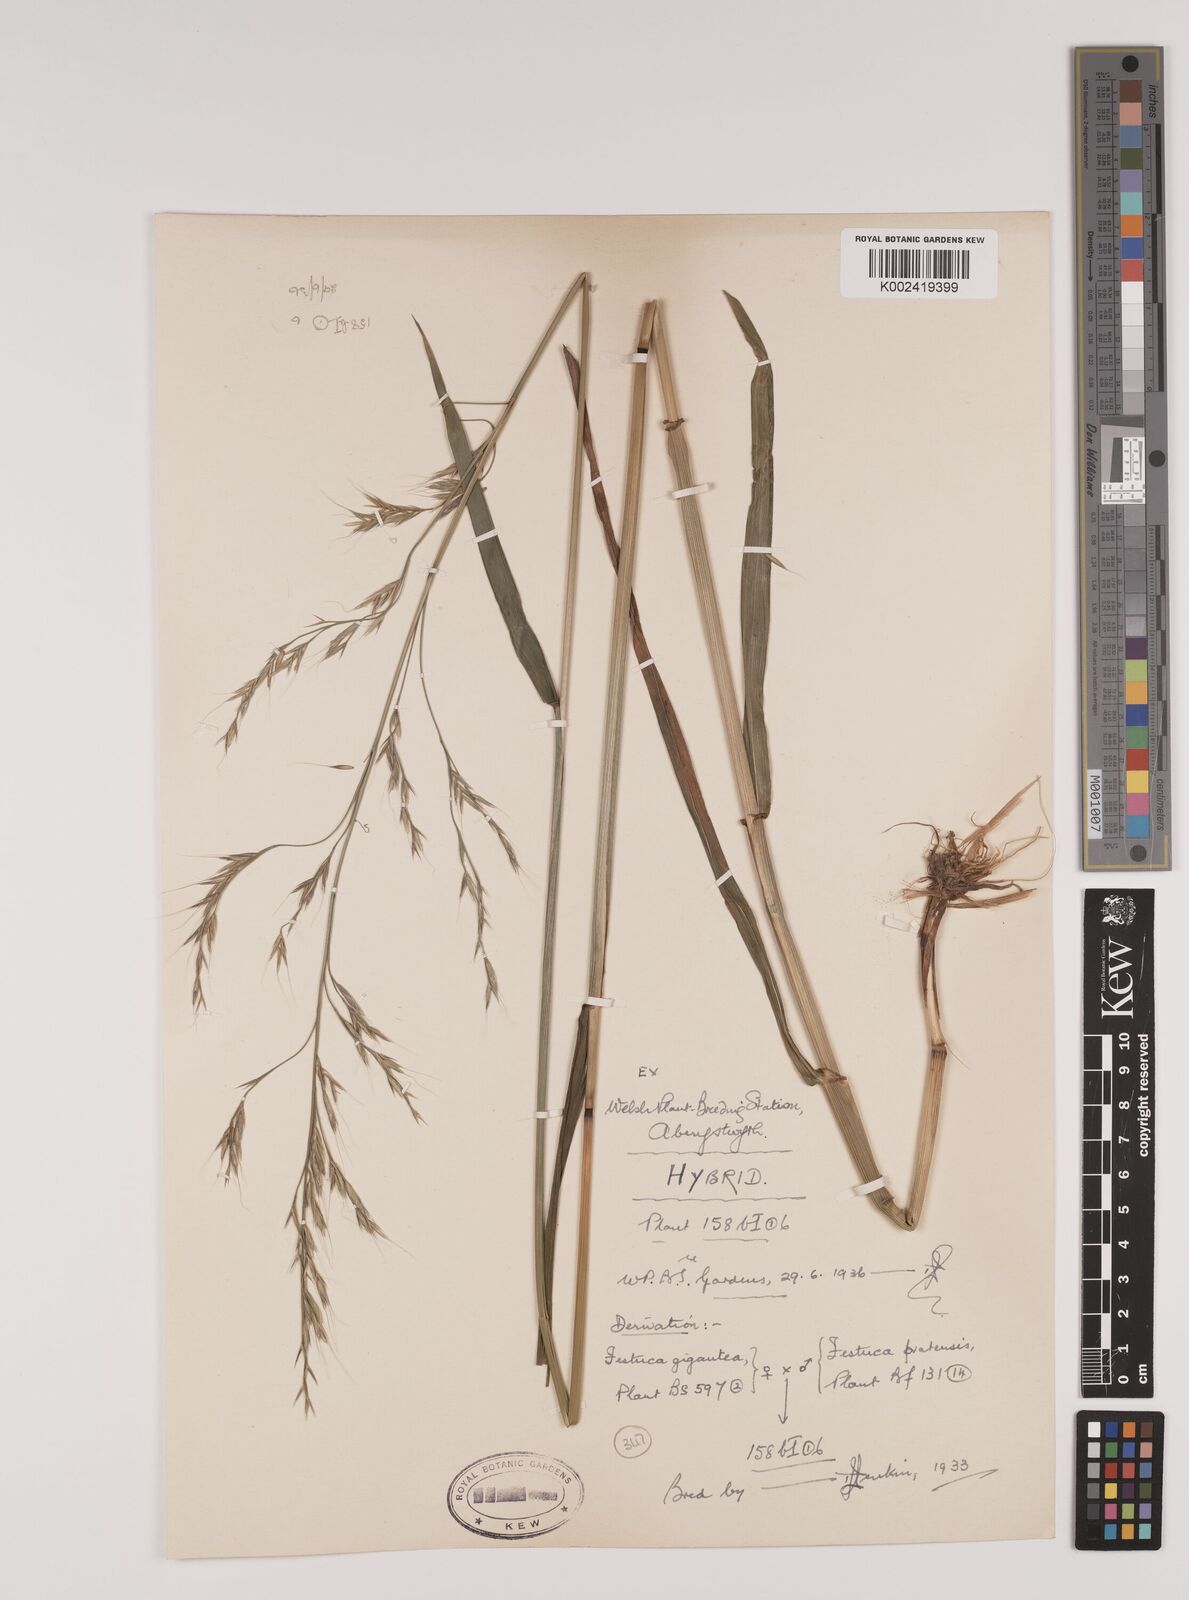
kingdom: Plantae
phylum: Tracheophyta
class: Liliopsida
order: Poales
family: Poaceae
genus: Lolium
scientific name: Lolium giganteum
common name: Giant fescue
